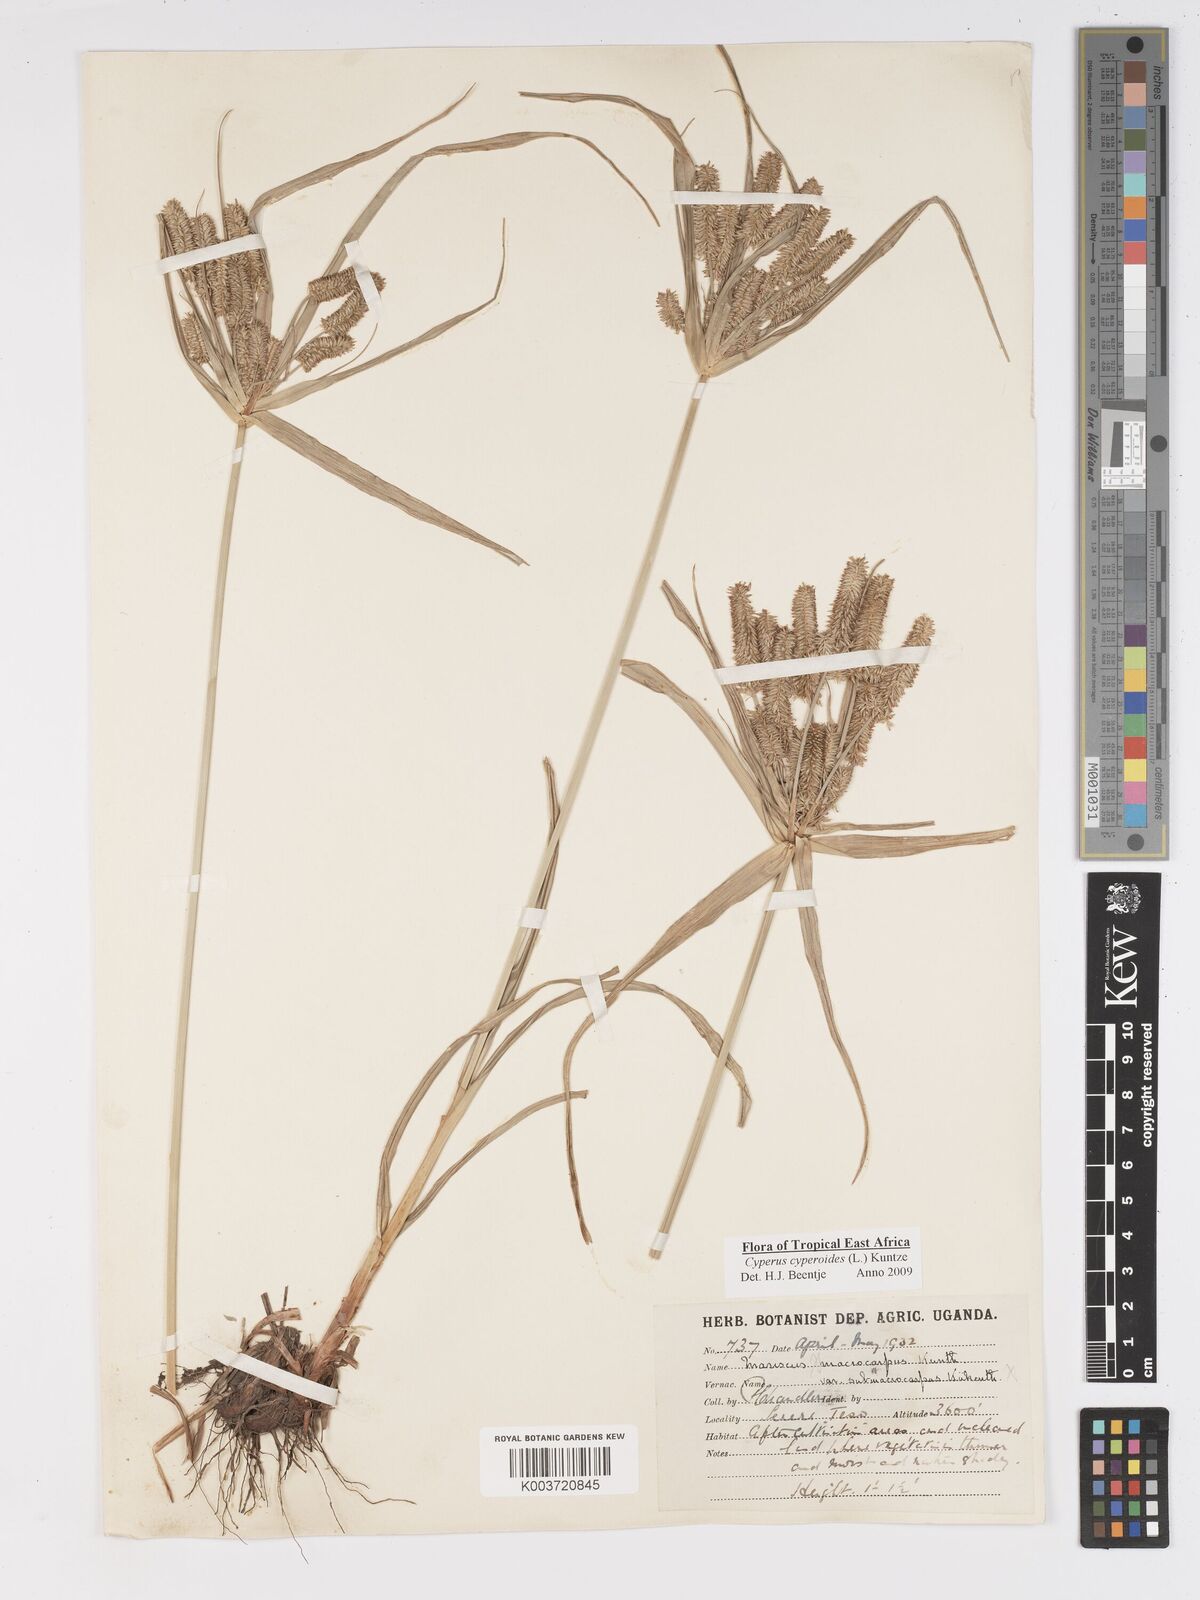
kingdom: Plantae
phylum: Tracheophyta
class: Liliopsida
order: Poales
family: Cyperaceae
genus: Cyperus
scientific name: Cyperus cyperoides
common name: Pacific island flat sedge
